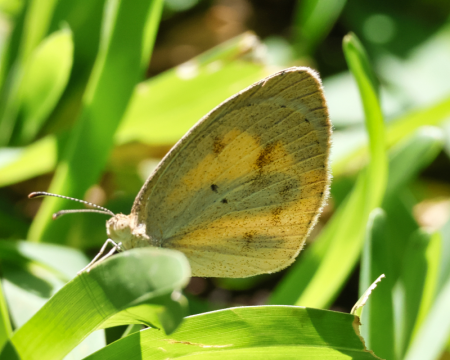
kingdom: Animalia
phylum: Arthropoda
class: Insecta
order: Lepidoptera
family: Pieridae
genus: Eurema
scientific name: Eurema daira
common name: Barred Yellow
